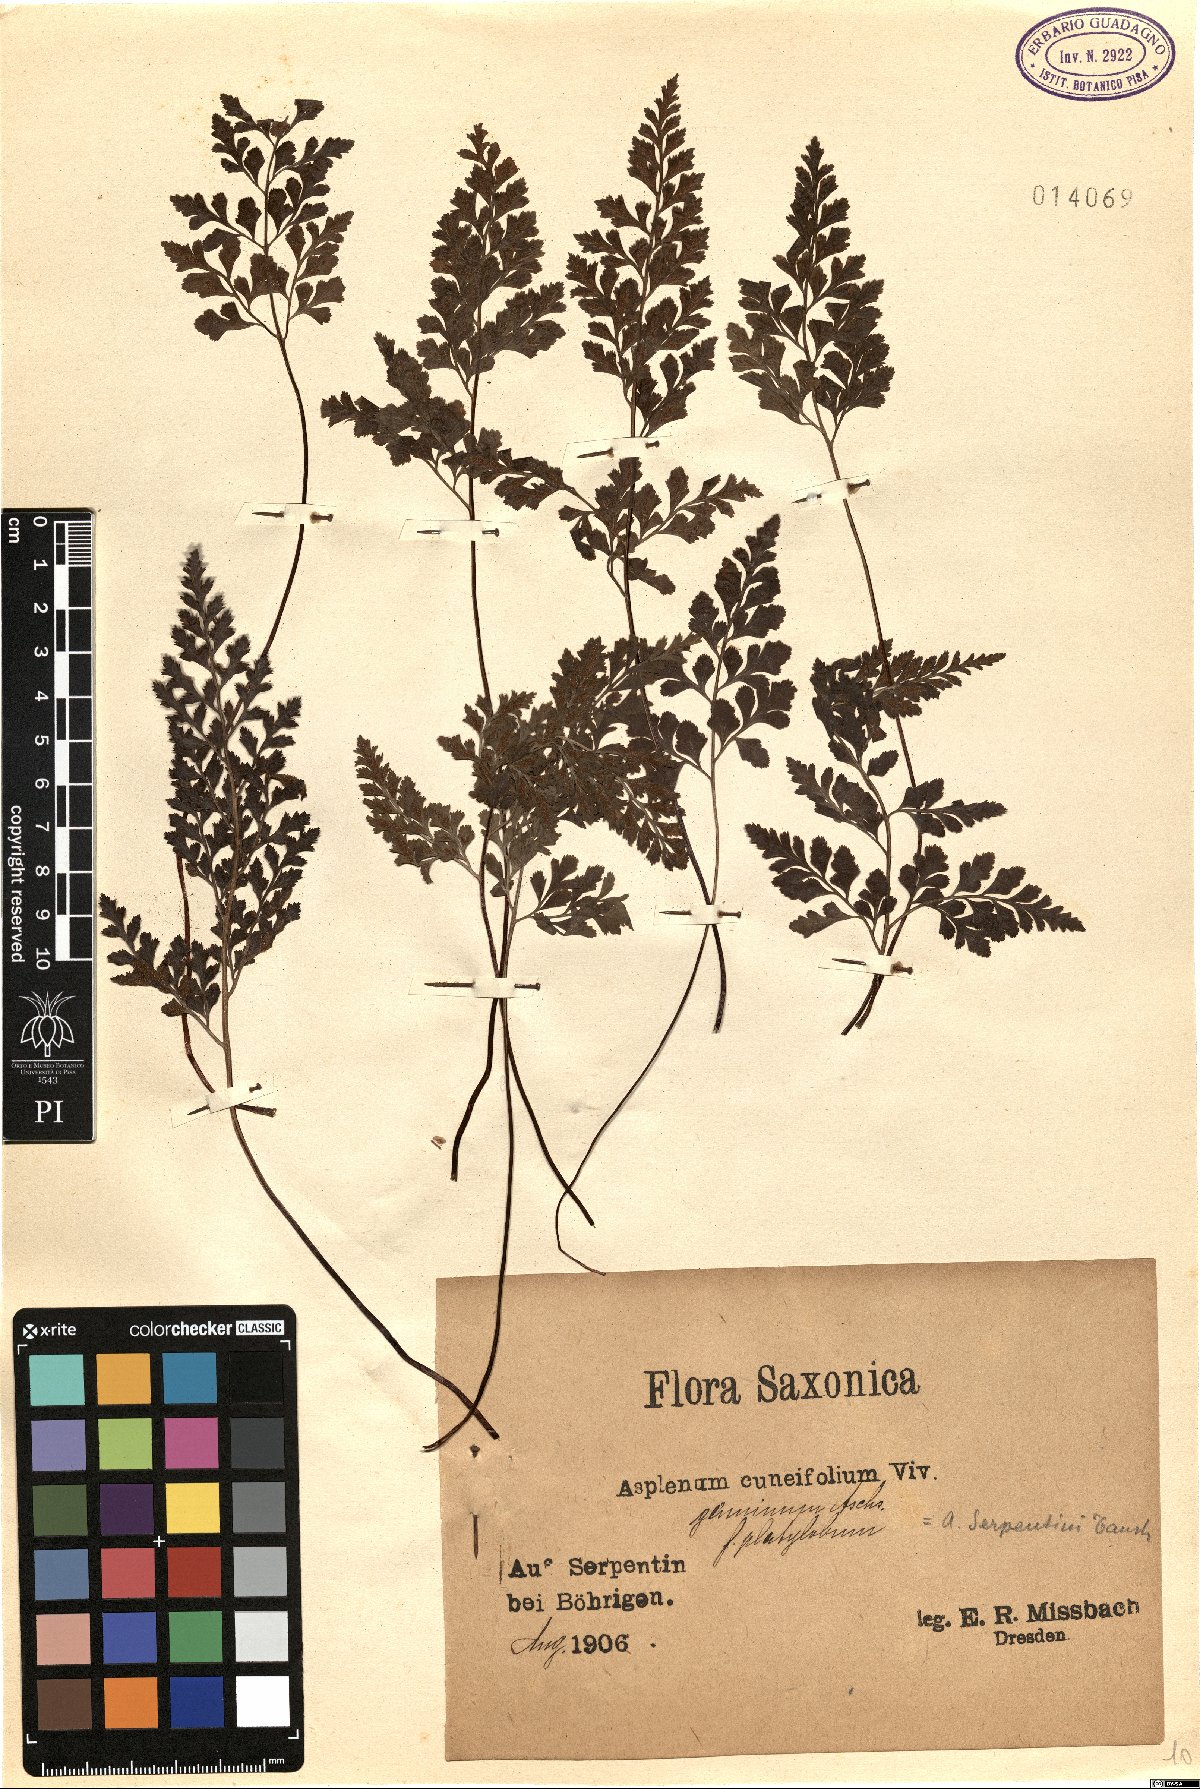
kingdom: Plantae
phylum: Tracheophyta
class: Polypodiopsida
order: Polypodiales
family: Aspleniaceae
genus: Asplenium
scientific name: Asplenium cuneifolium
